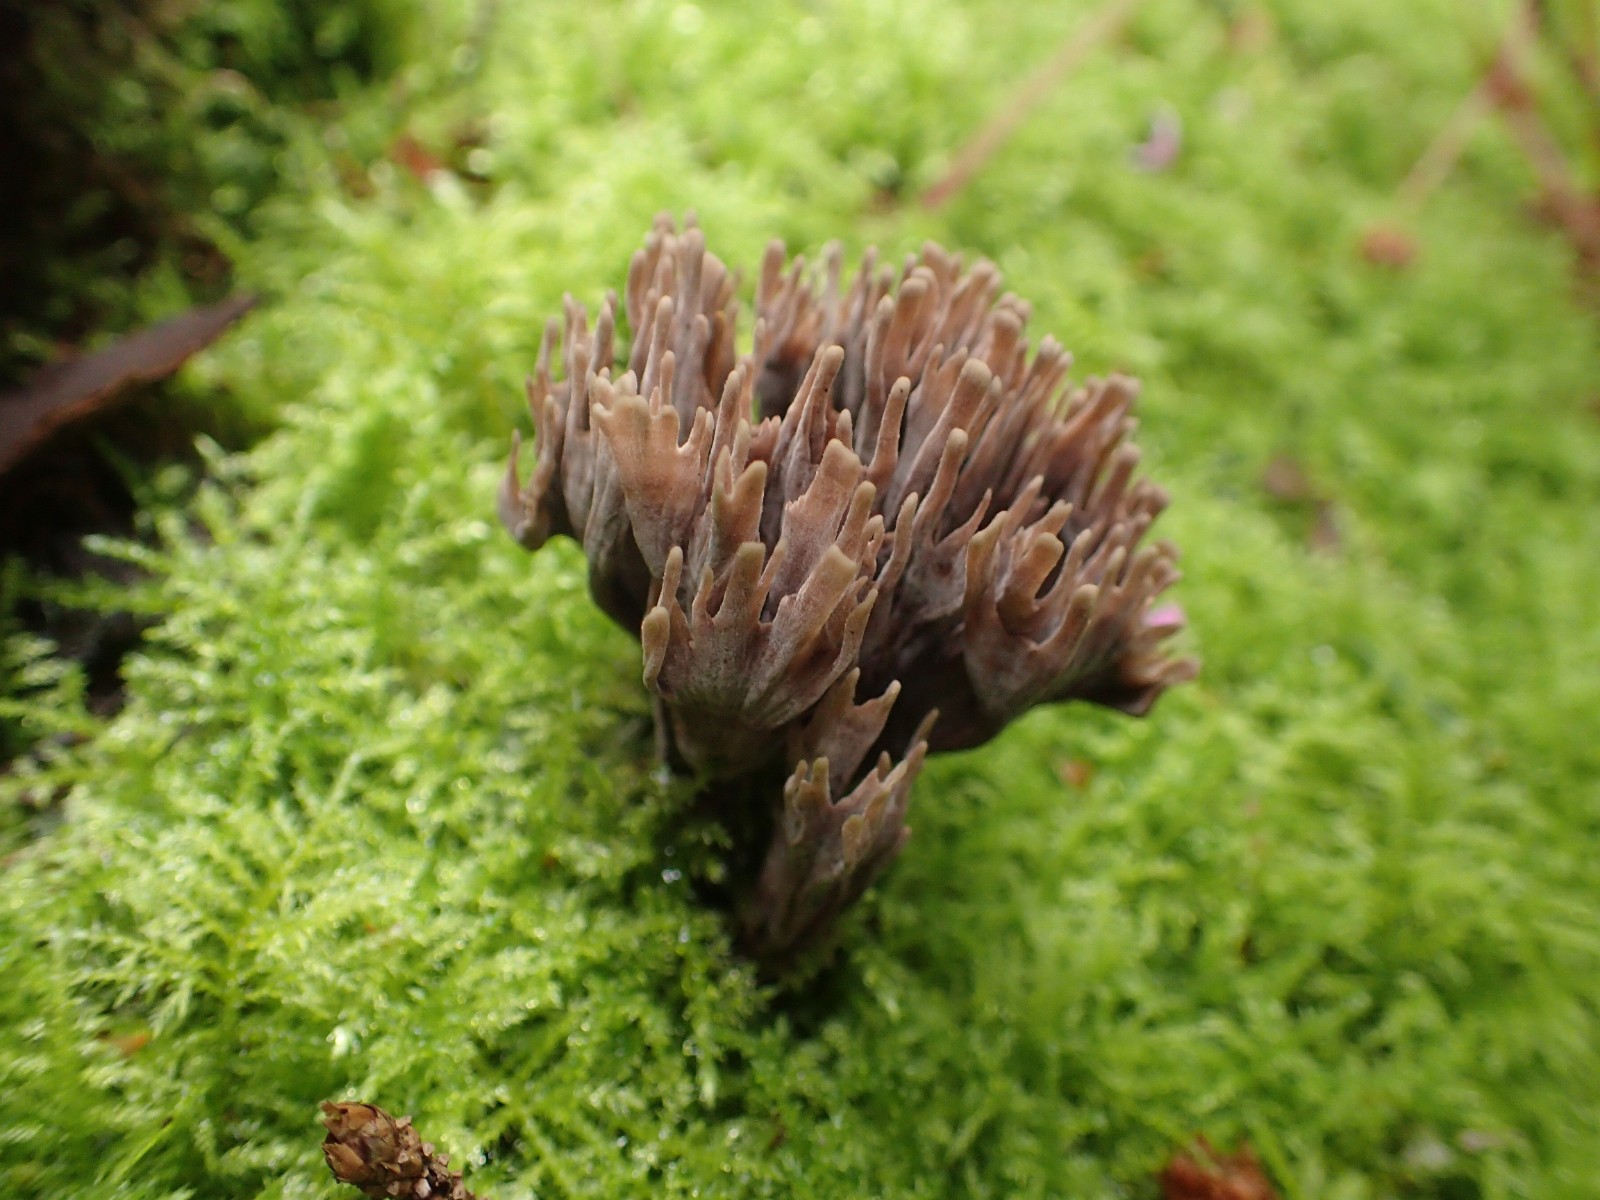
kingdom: Fungi
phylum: Basidiomycota
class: Agaricomycetes
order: Thelephorales
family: Thelephoraceae
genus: Thelephora
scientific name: Thelephora palmata
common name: grenet frynsesvamp
